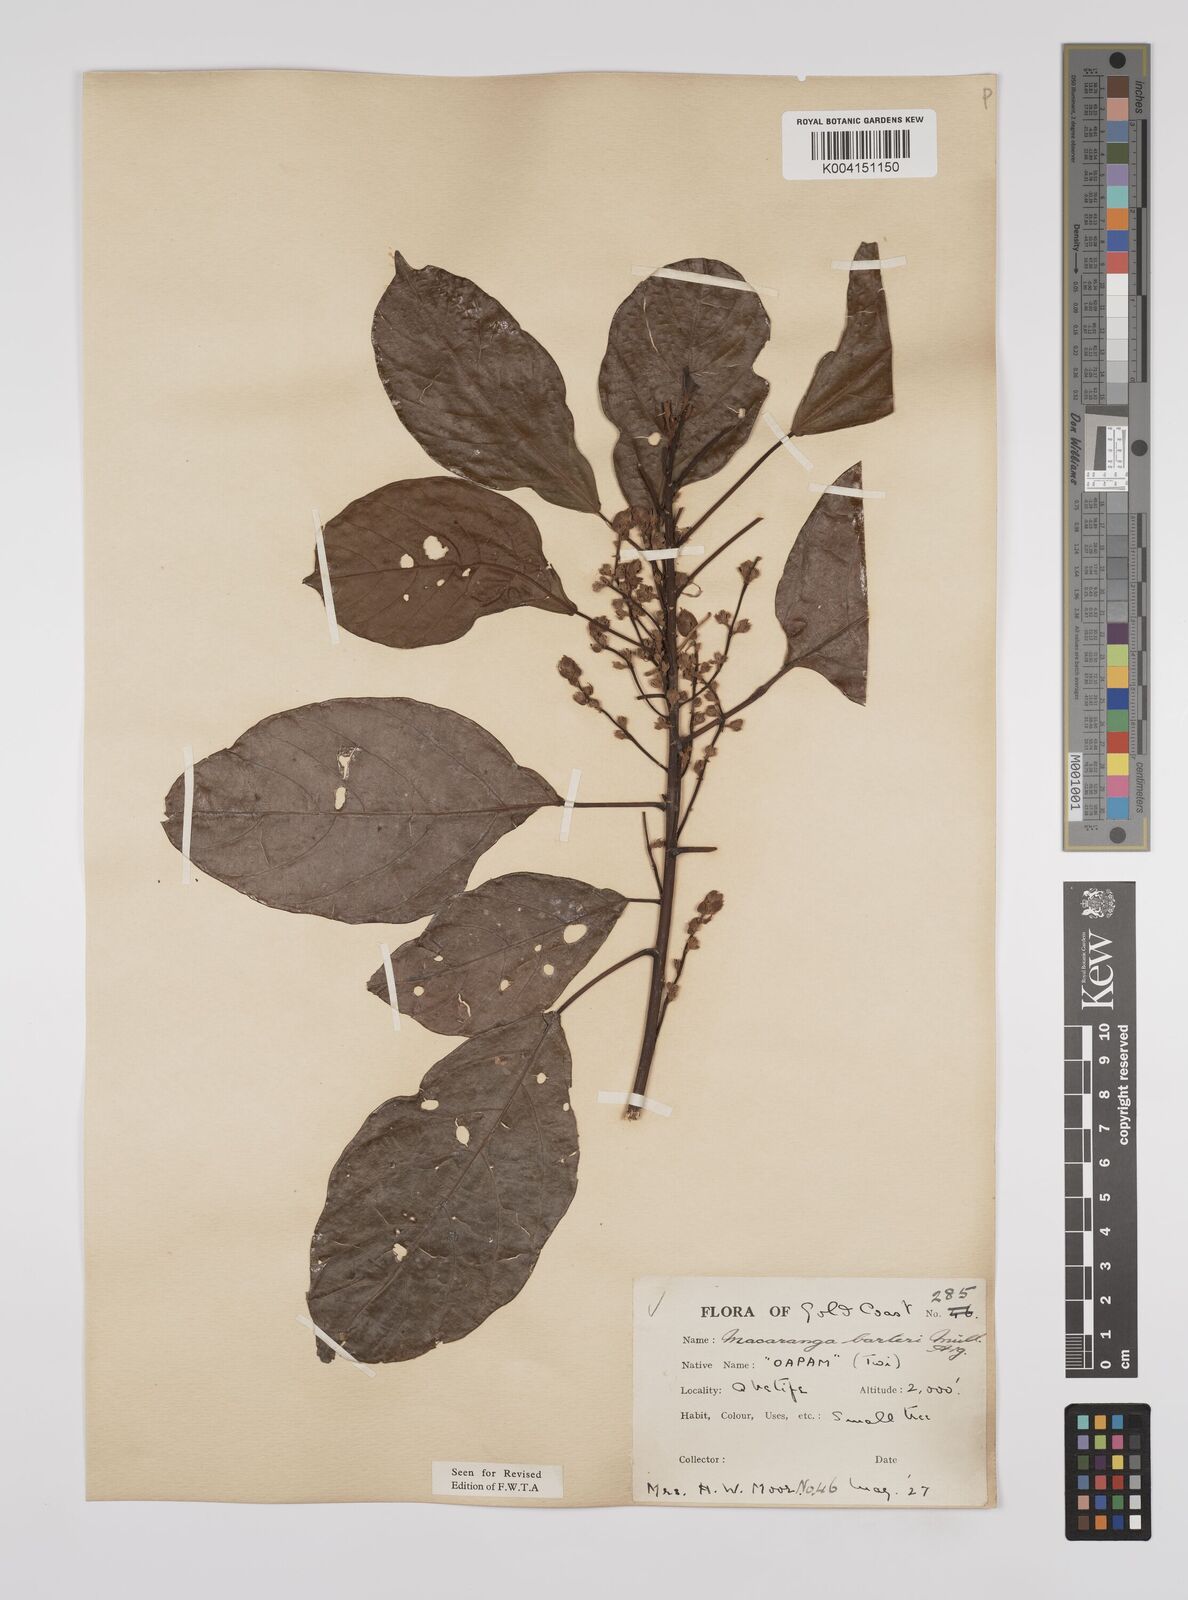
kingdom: Plantae
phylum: Tracheophyta
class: Magnoliopsida
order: Malpighiales
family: Euphorbiaceae
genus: Macaranga
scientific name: Macaranga barteri
